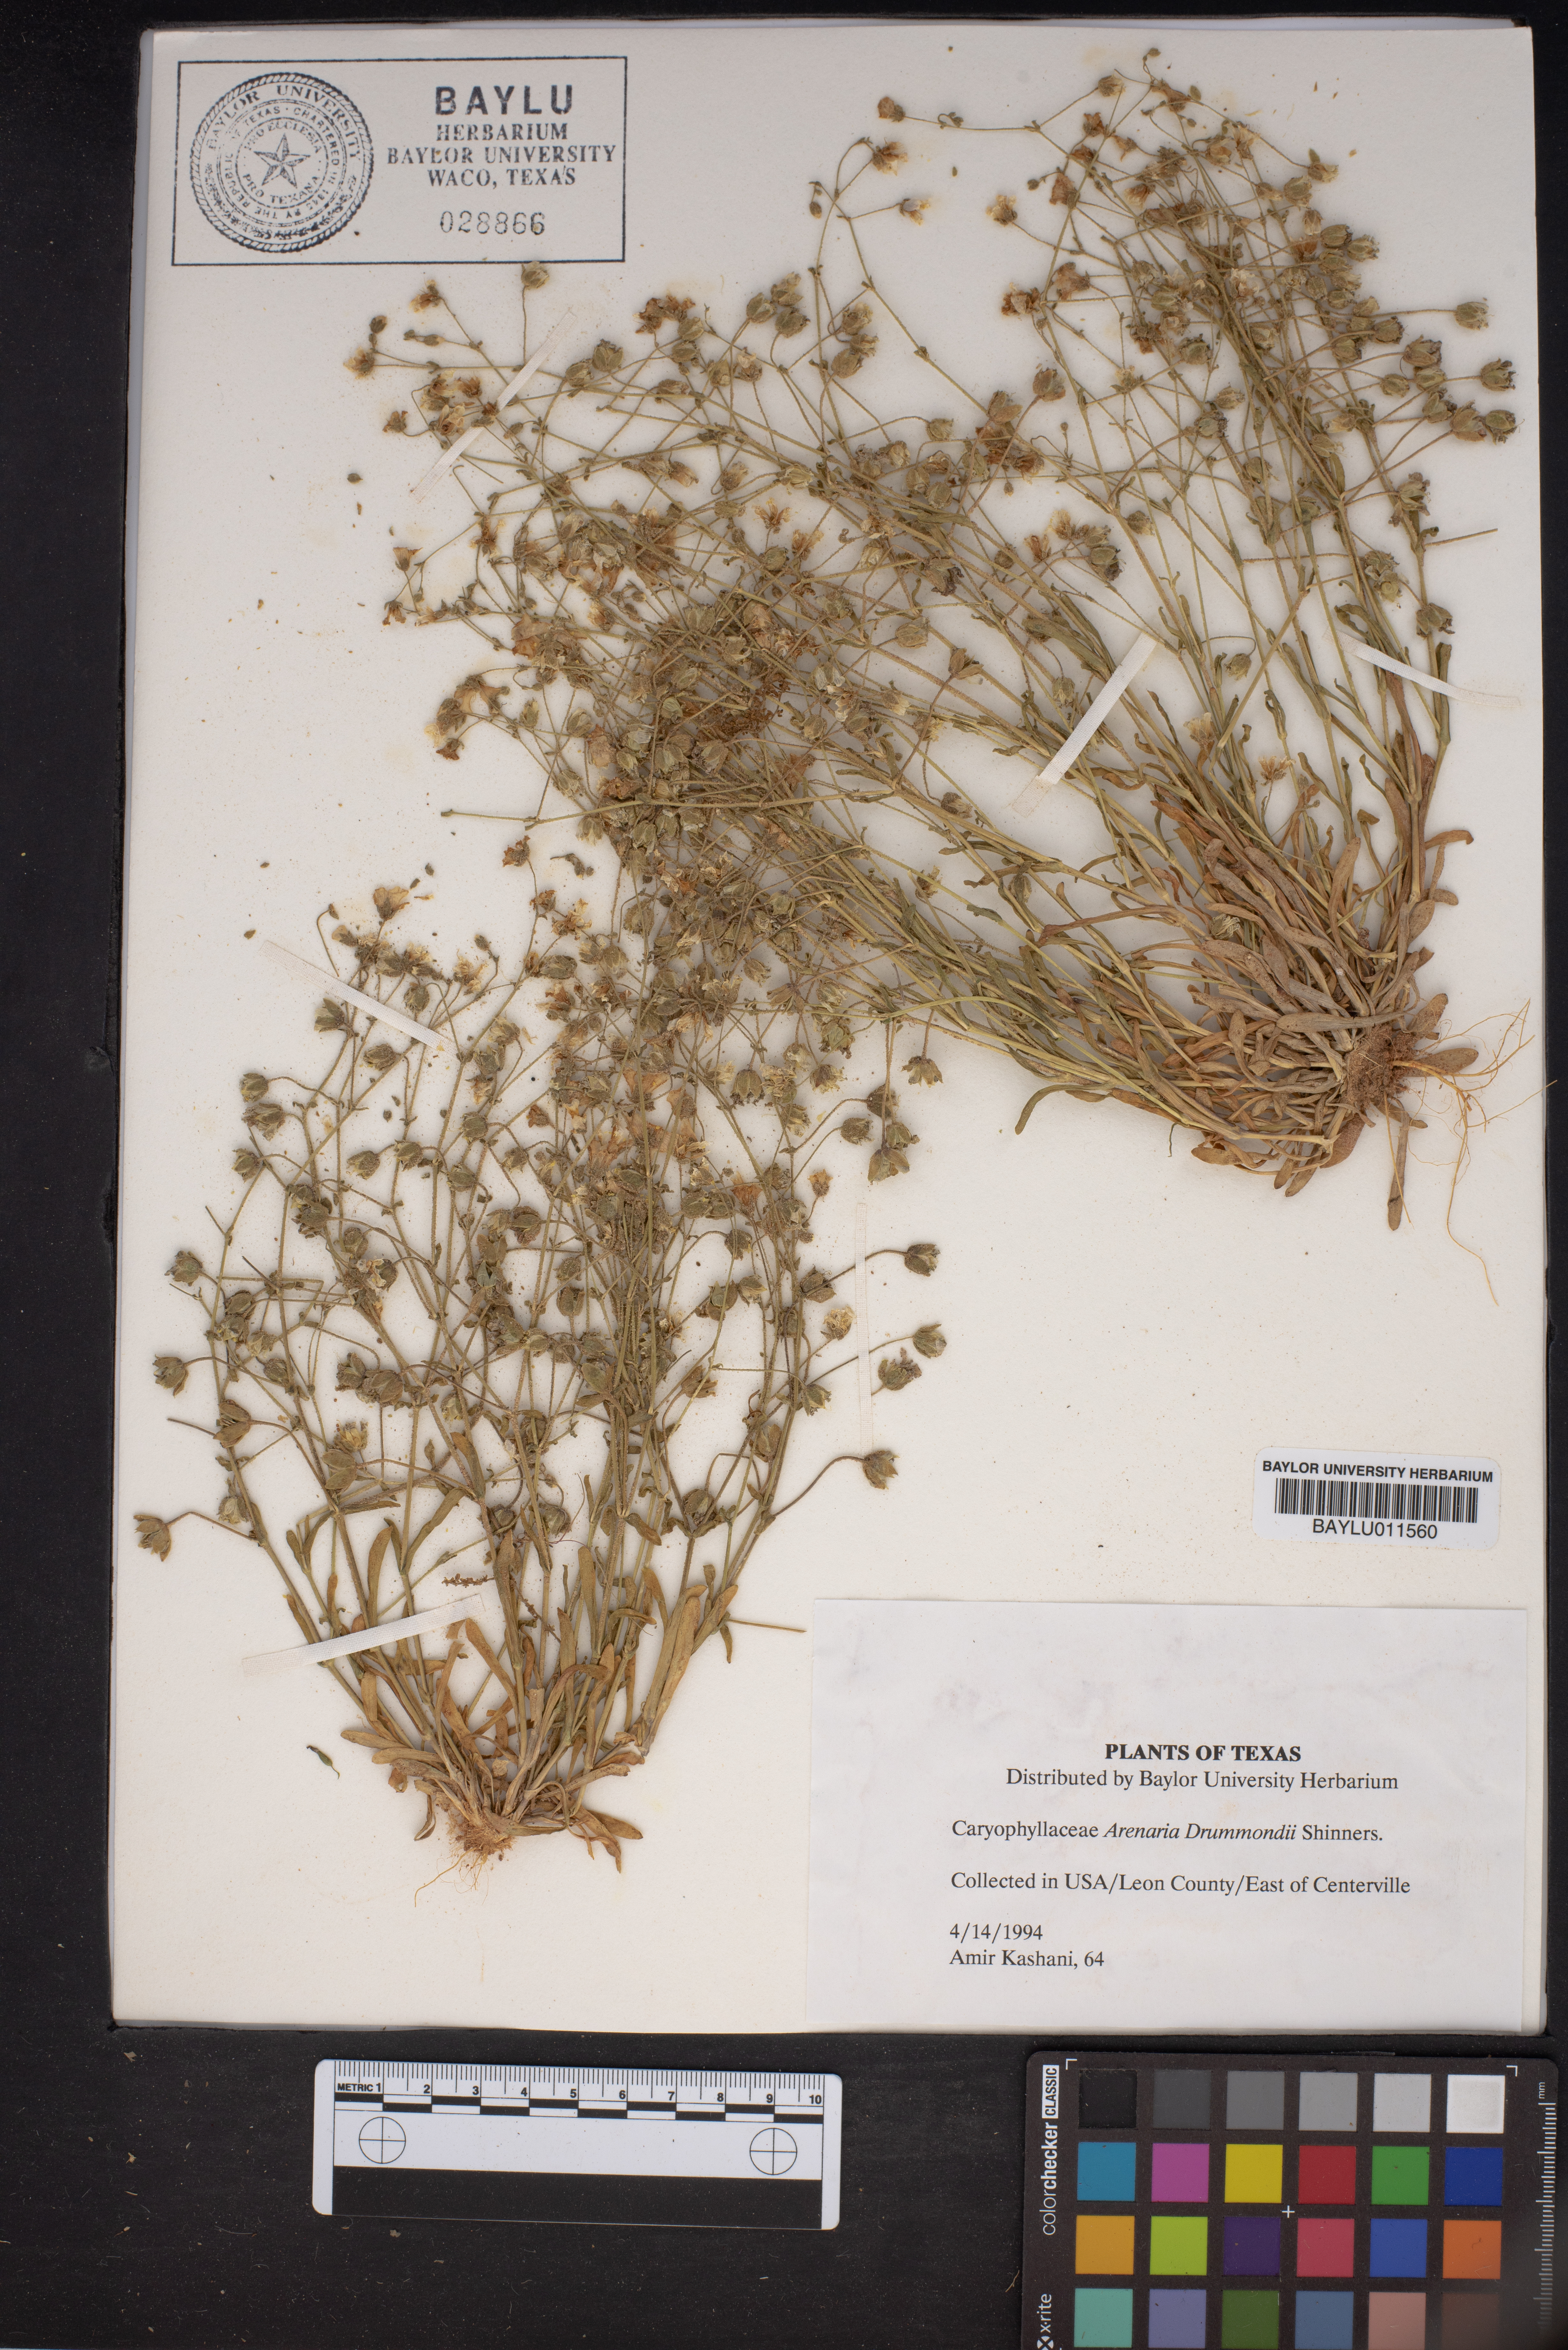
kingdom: Plantae
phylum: Tracheophyta
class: Magnoliopsida
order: Caryophyllales
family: Caryophyllaceae
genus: Geocarpon
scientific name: Geocarpon nuttallii
